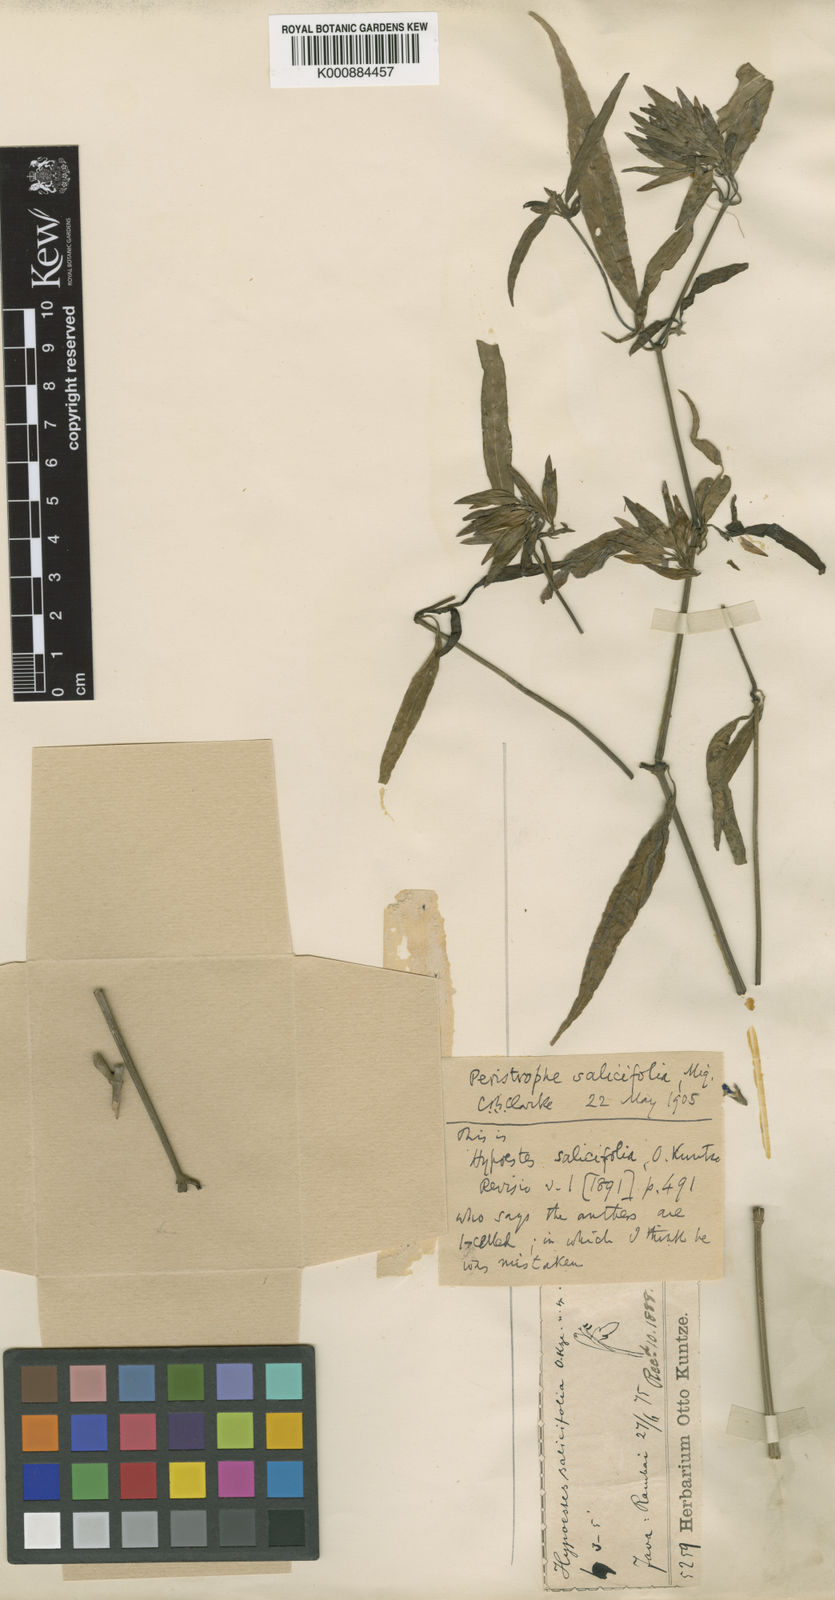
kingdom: Plantae
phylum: Tracheophyta
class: Magnoliopsida
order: Lamiales
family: Acanthaceae
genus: Dicliptera
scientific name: Dicliptera
